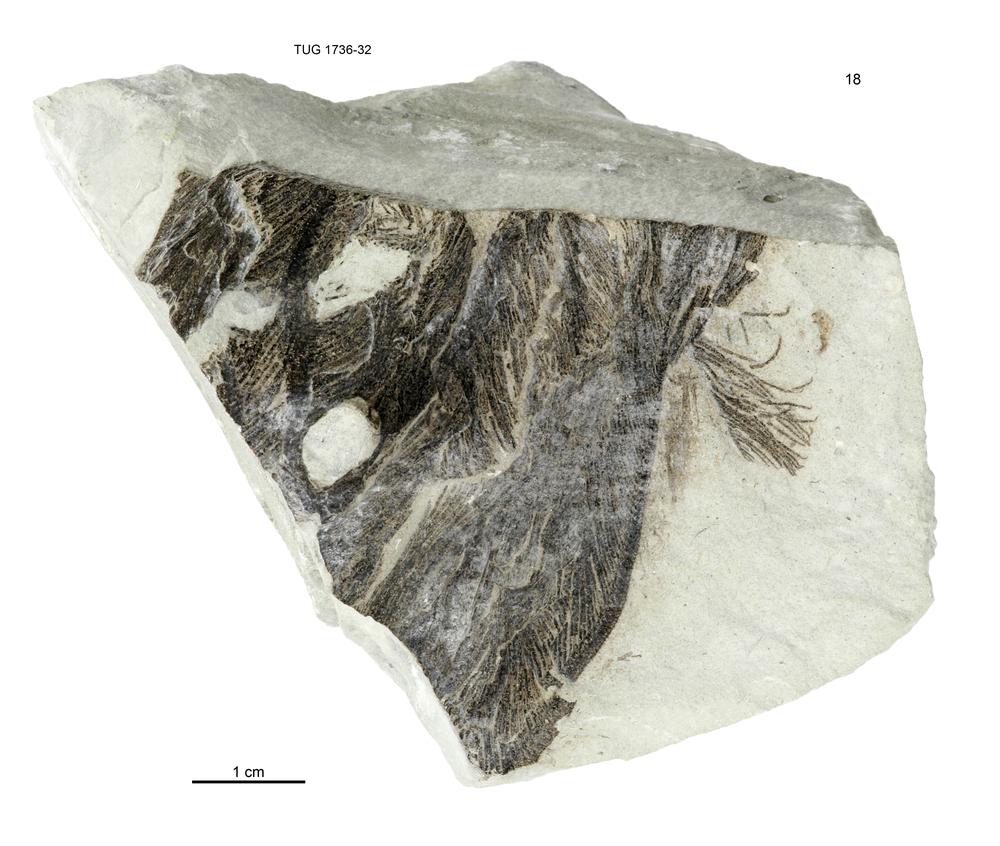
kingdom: Animalia
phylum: Echinodermata
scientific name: Echinodermata
